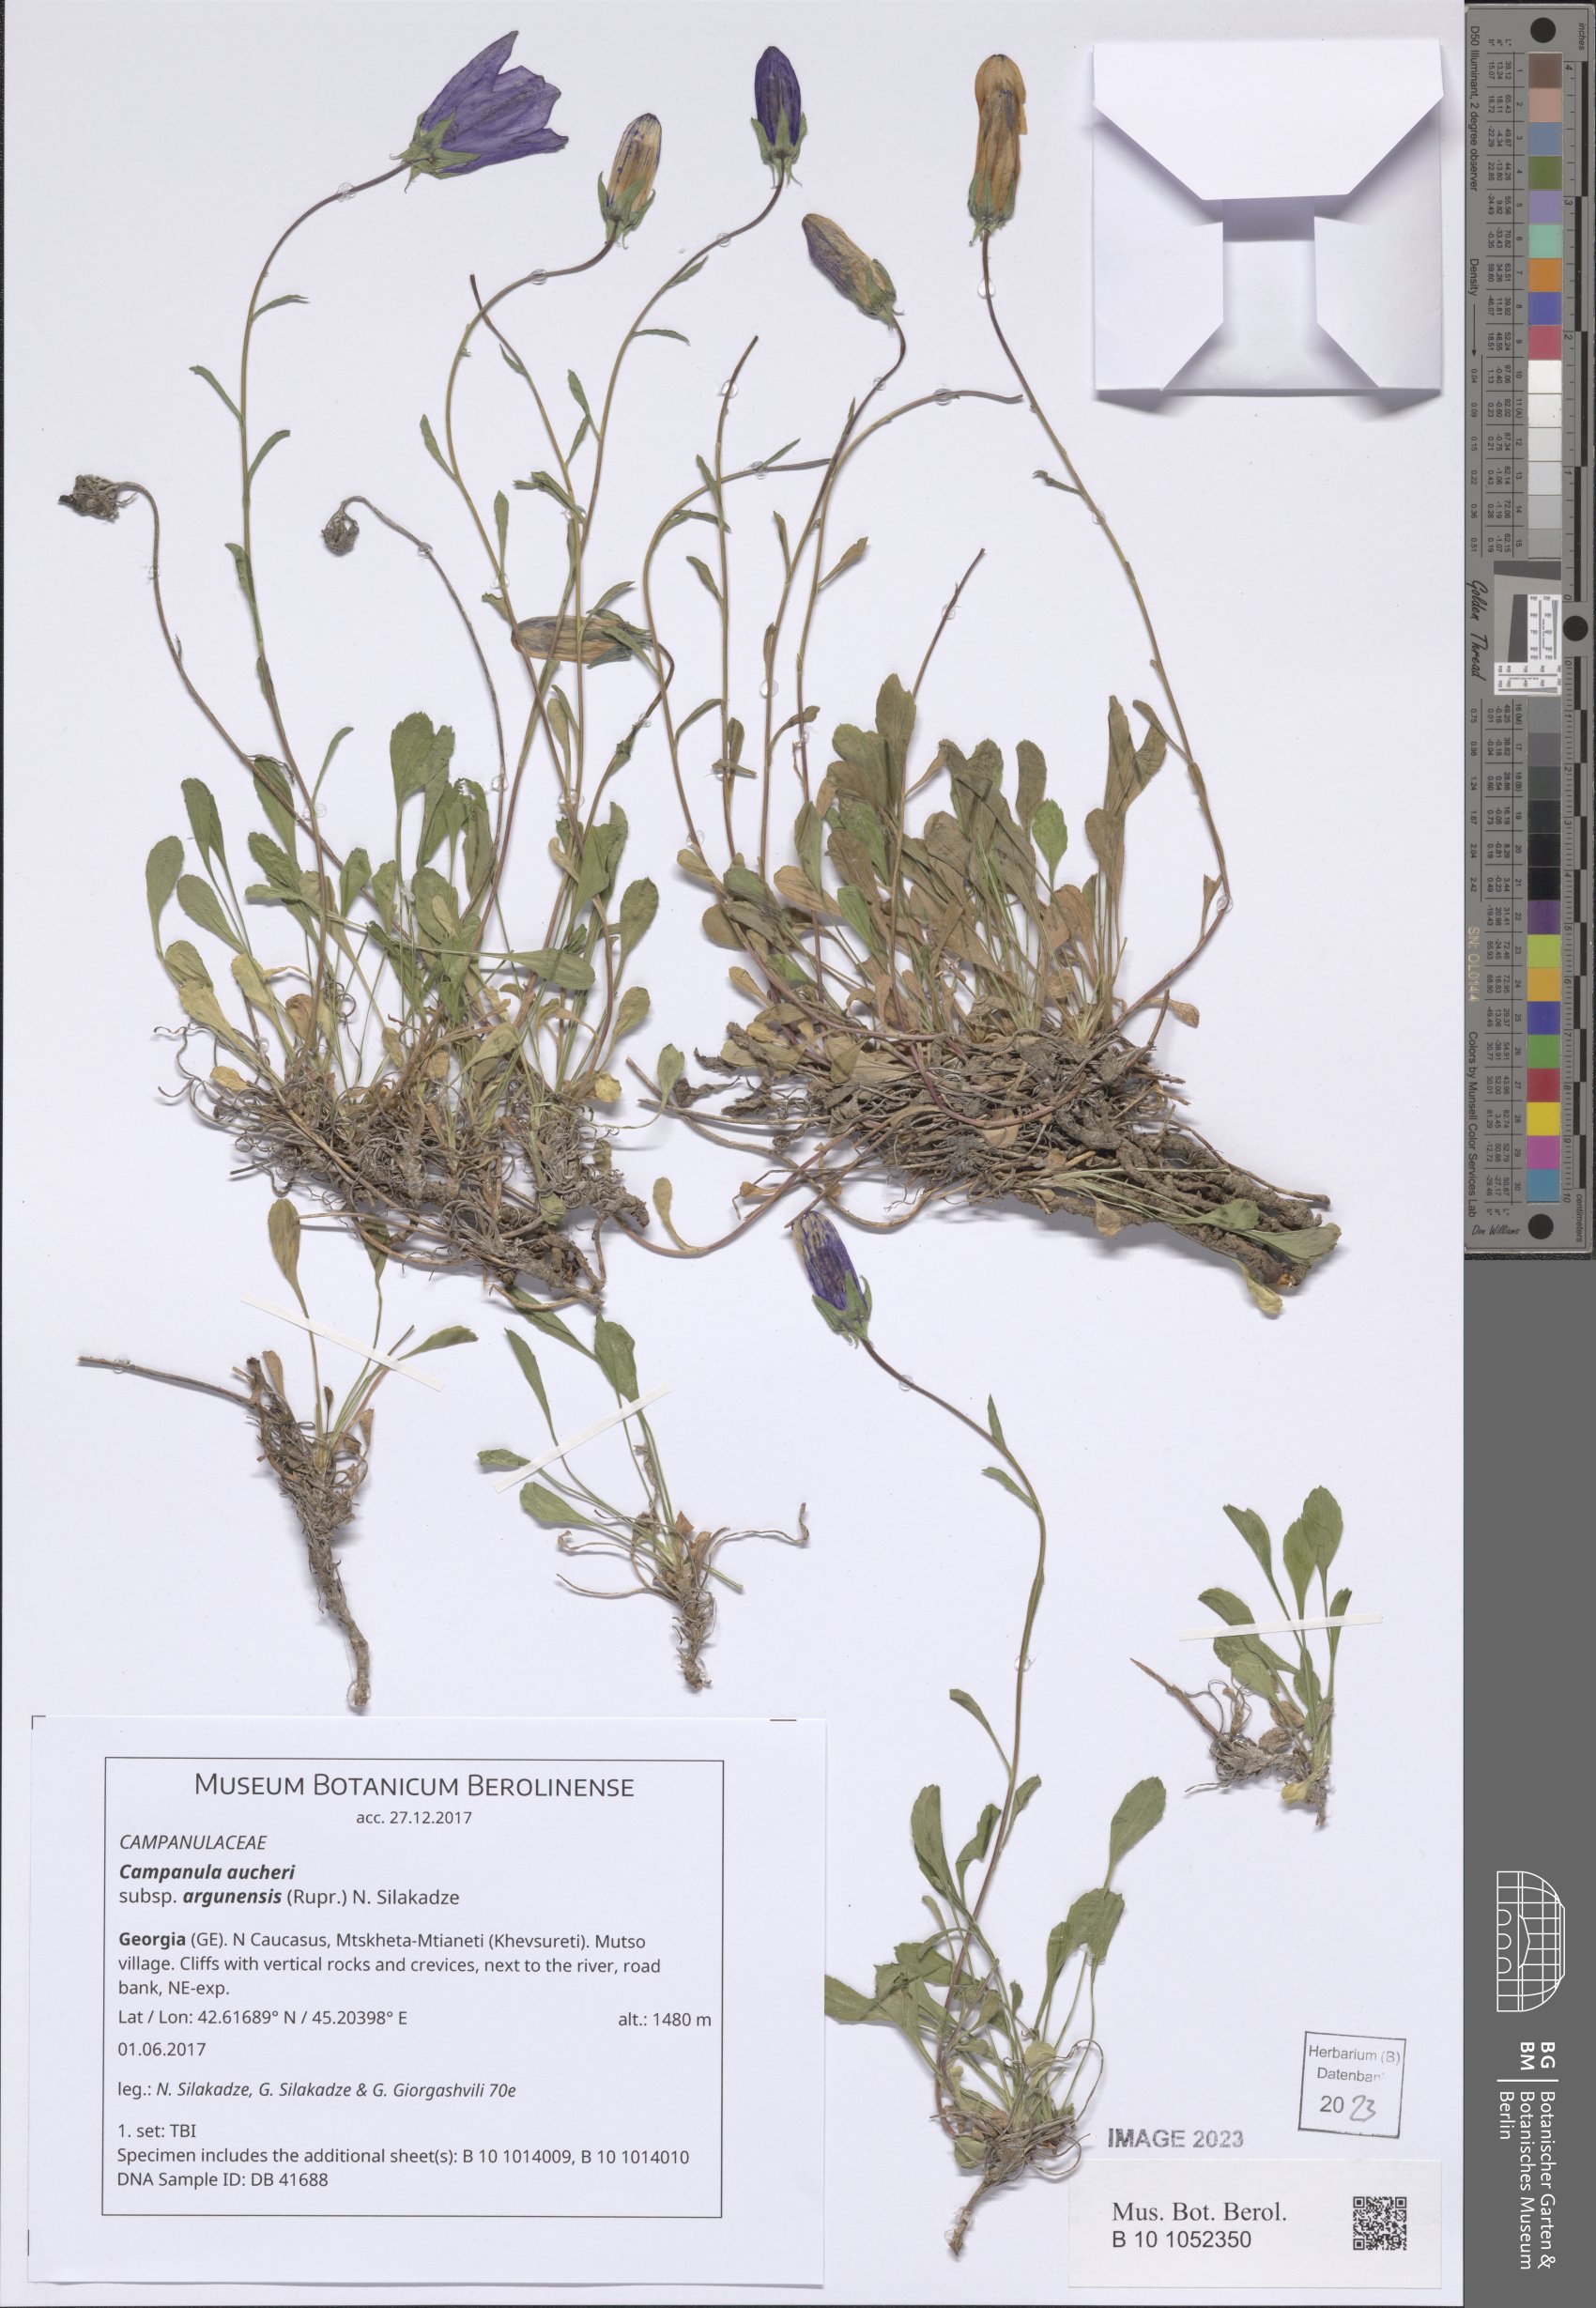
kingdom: Plantae
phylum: Tracheophyta
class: Magnoliopsida
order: Asterales
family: Campanulaceae
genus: Campanula
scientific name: Campanula saxifraga
